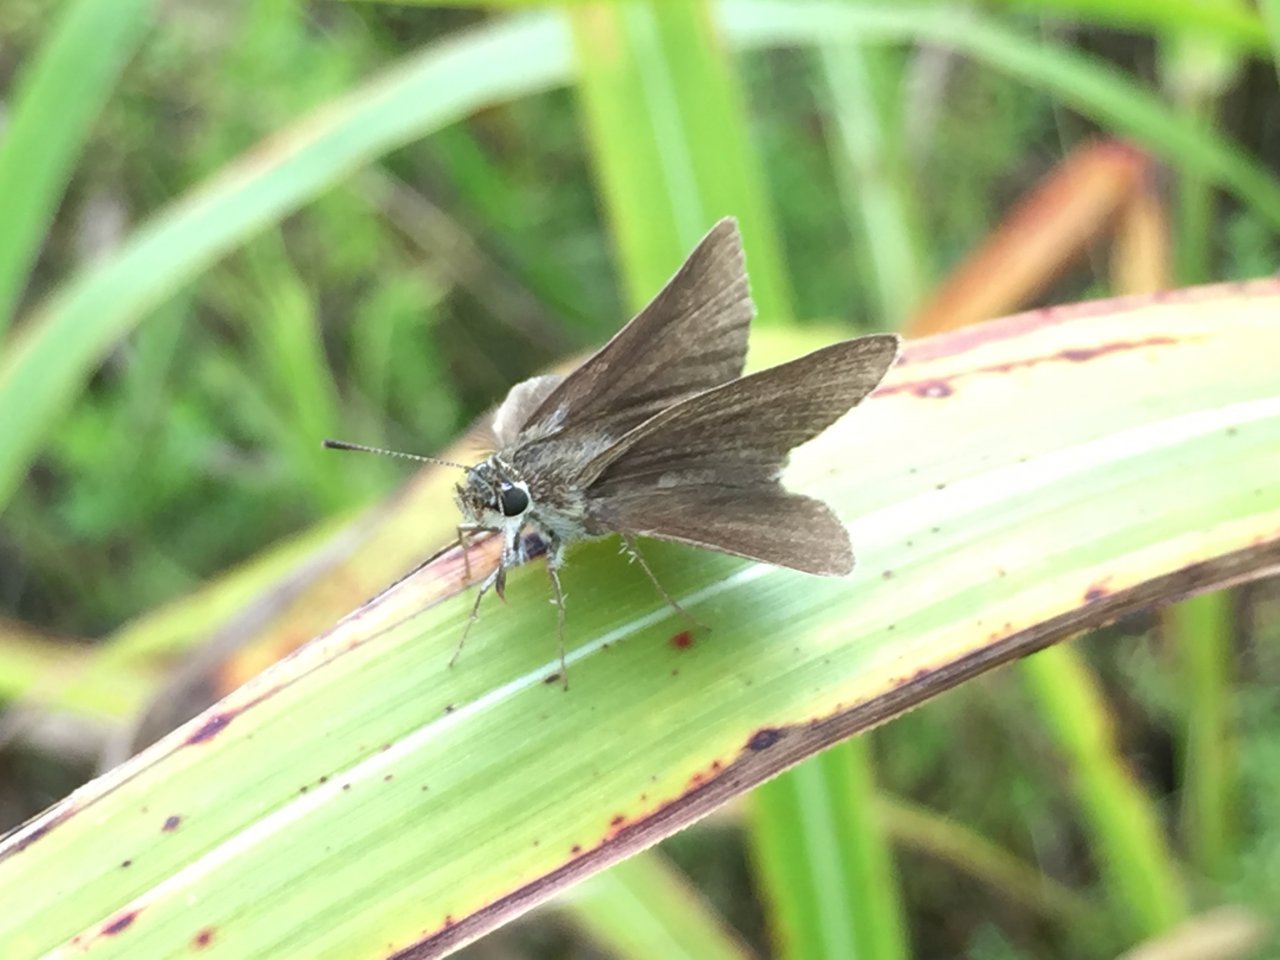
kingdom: Animalia
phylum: Arthropoda
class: Insecta
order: Lepidoptera
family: Hesperiidae
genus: Nastra
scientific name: Nastra lherminier
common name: Swarthy Skipper
